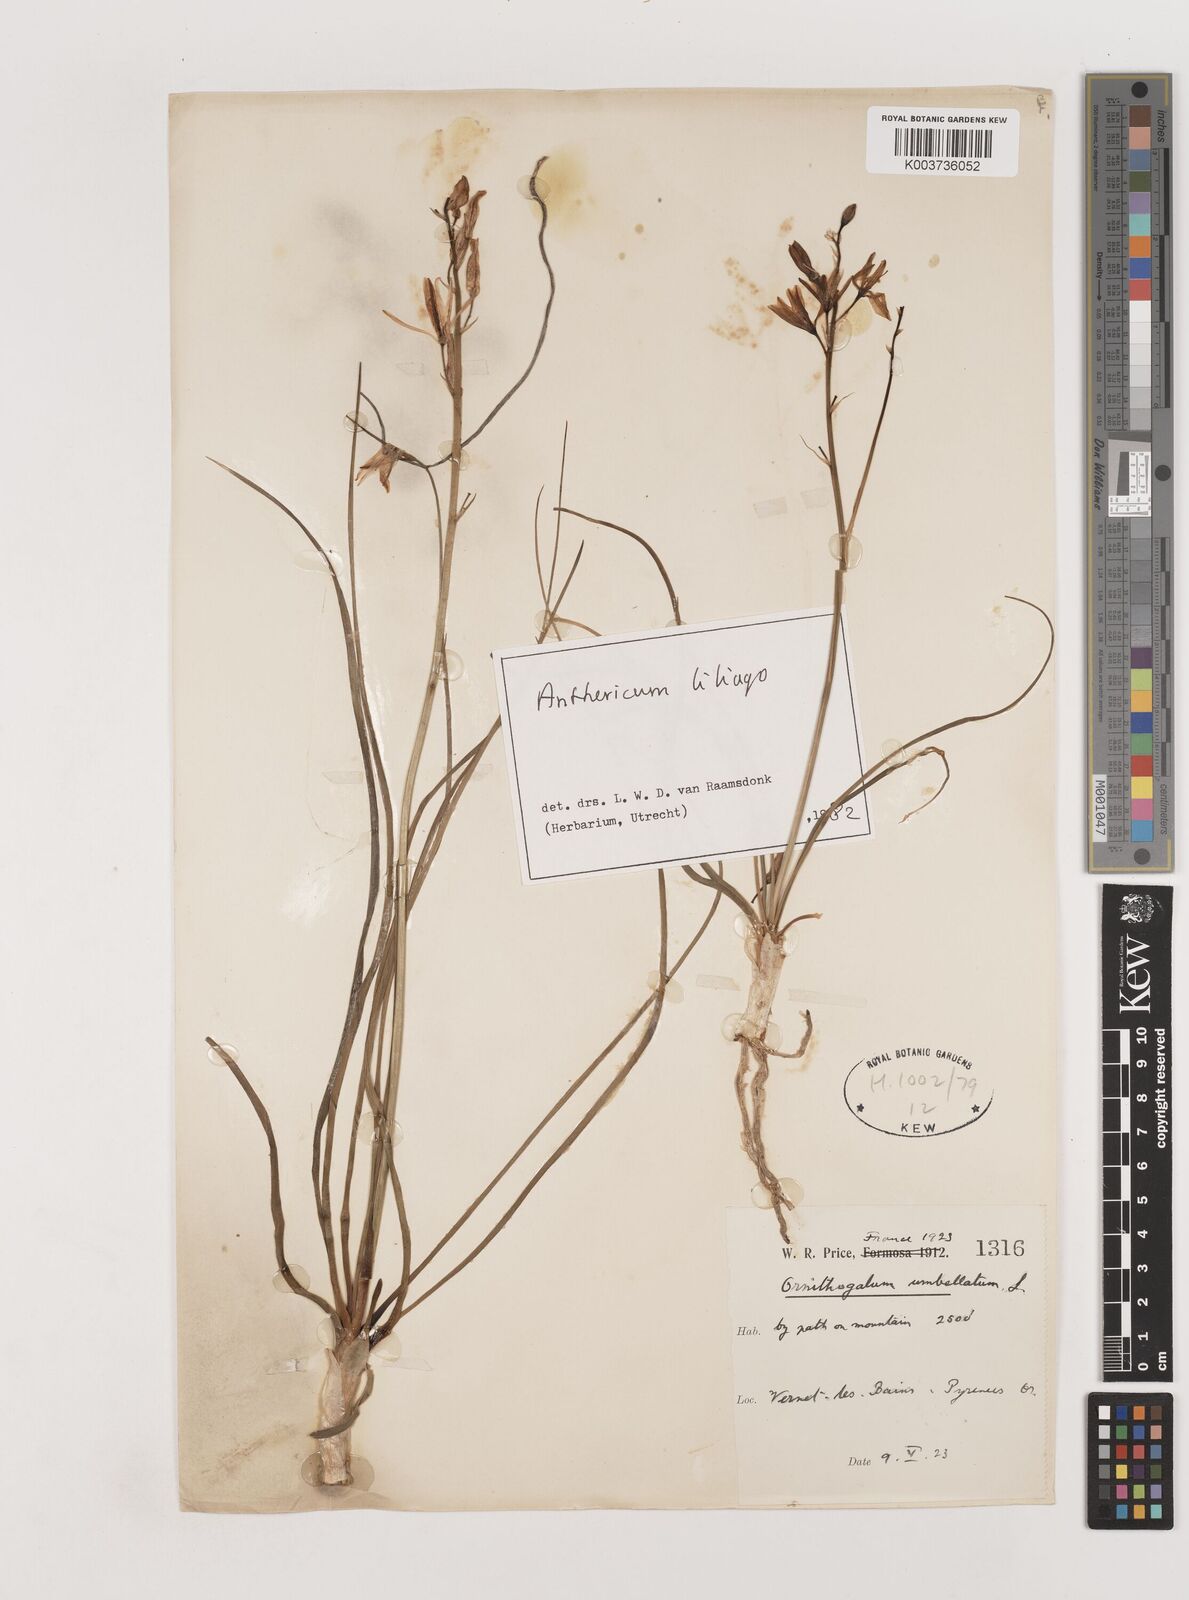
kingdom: Plantae
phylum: Tracheophyta
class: Liliopsida
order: Asparagales
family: Asparagaceae
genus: Anthericum
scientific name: Anthericum liliago
